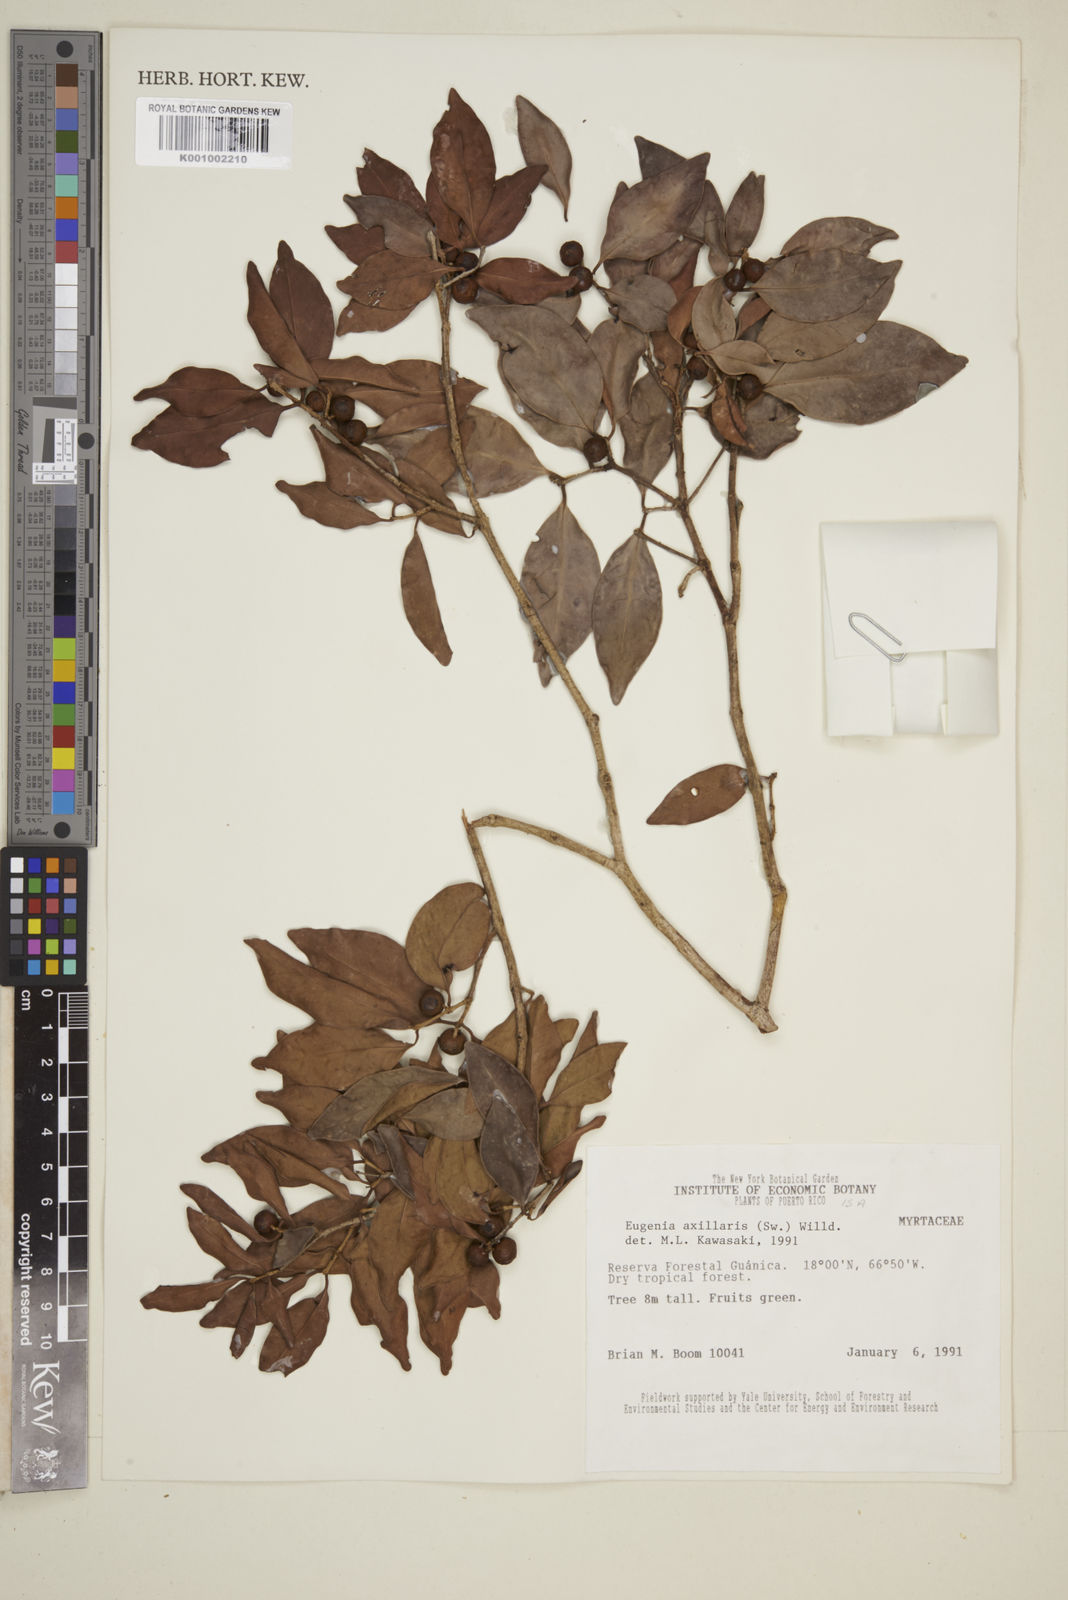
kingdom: Plantae
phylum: Tracheophyta
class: Magnoliopsida
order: Myrtales
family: Myrtaceae
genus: Eugenia
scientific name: Eugenia axillaris
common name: Choaky berry
